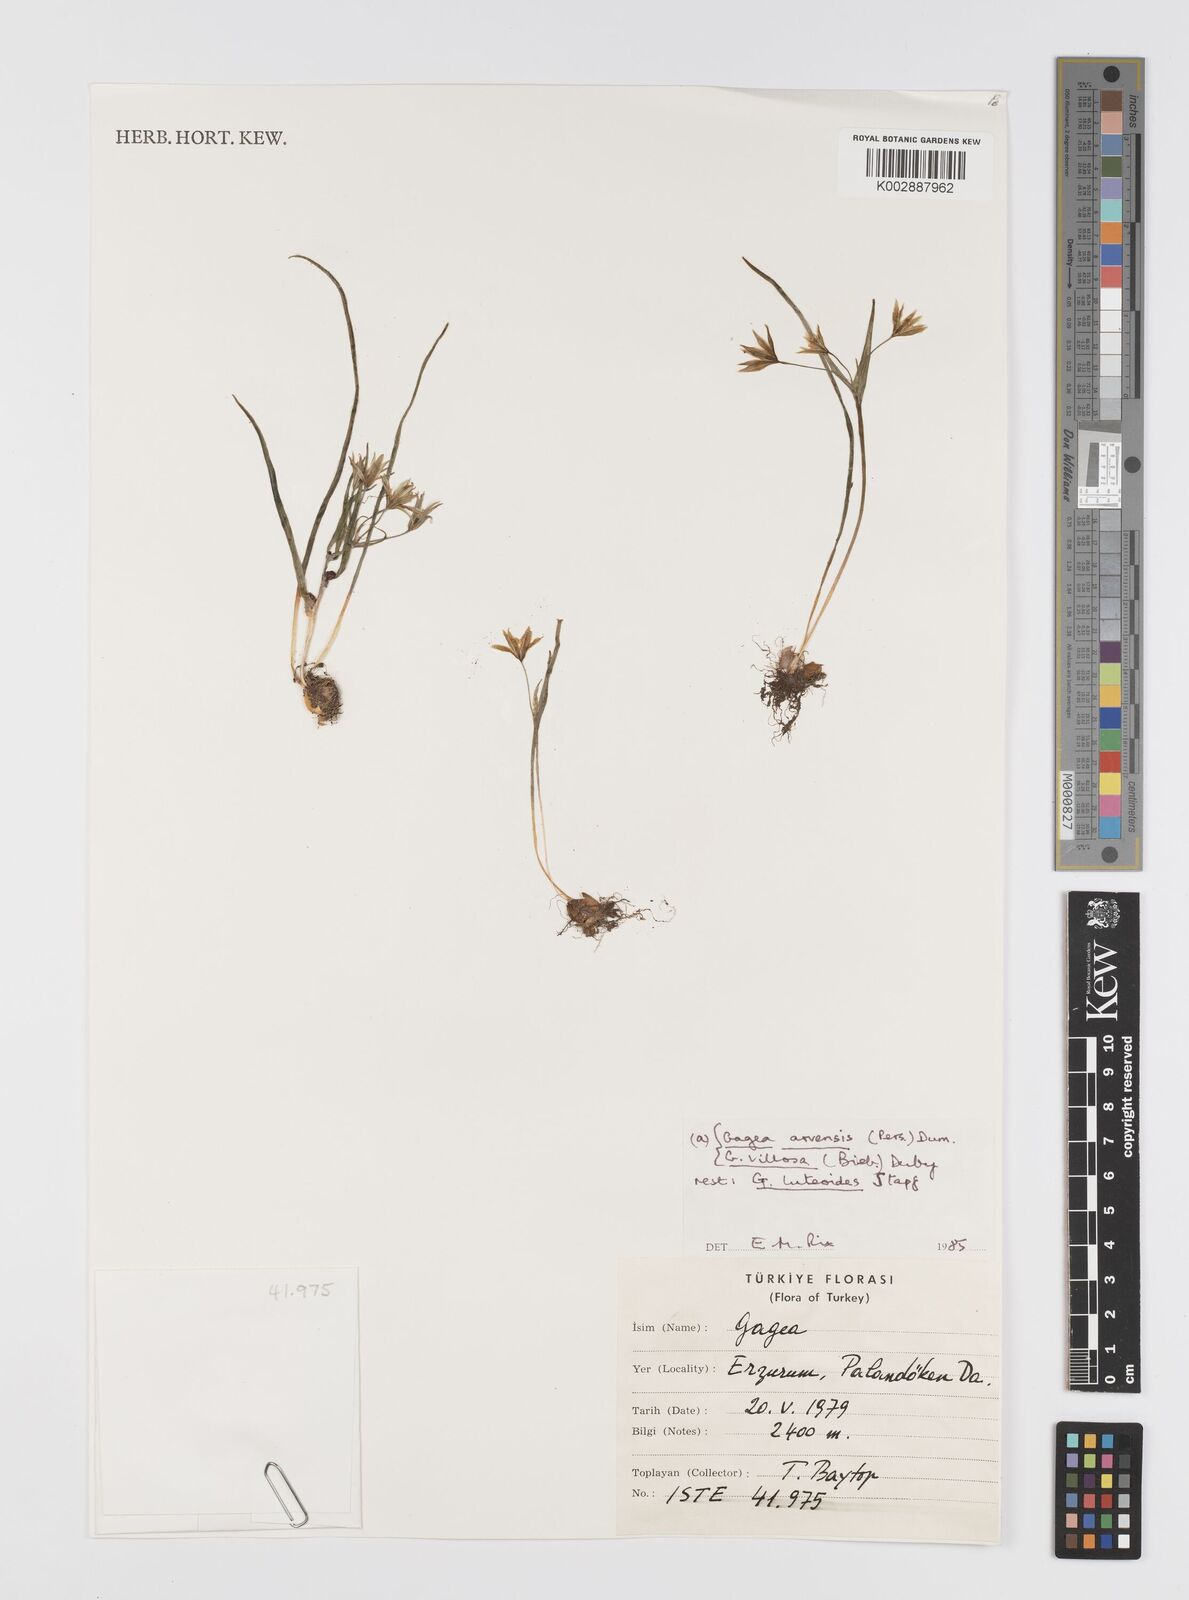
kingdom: Plantae
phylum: Tracheophyta
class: Liliopsida
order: Liliales
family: Liliaceae
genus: Gagea
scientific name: Gagea luteoides
